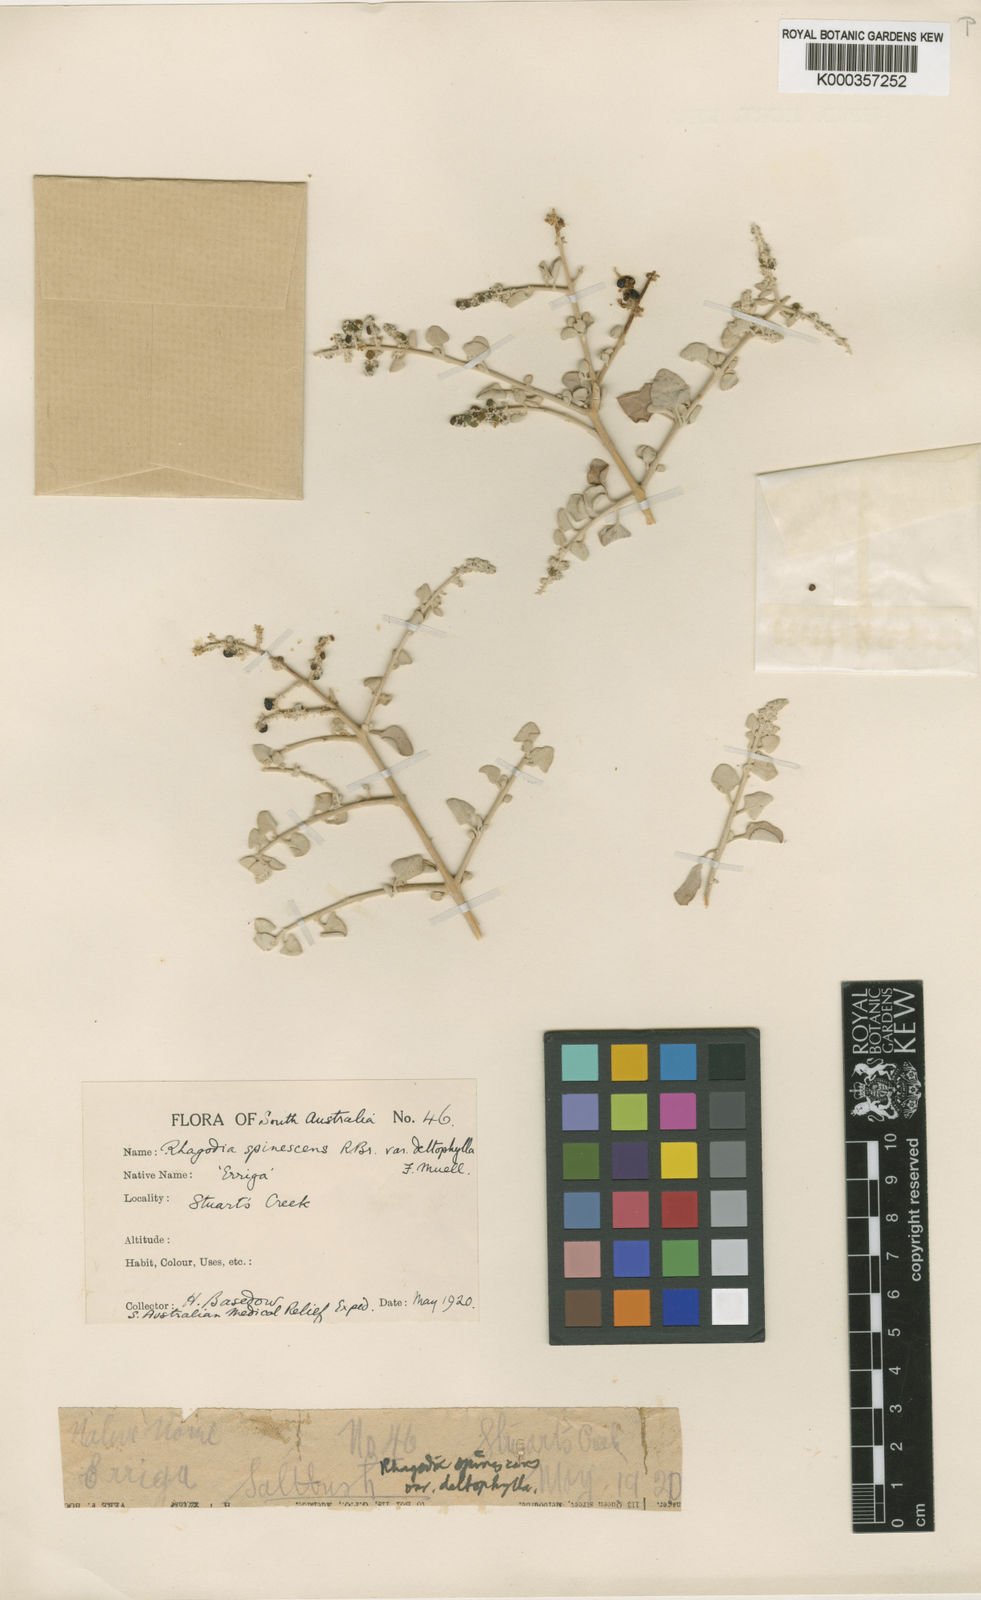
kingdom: Plantae
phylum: Tracheophyta
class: Magnoliopsida
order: Caryophyllales
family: Amaranthaceae
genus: Chenopodium
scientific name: Chenopodium spinescens
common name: Berry-saltbush
